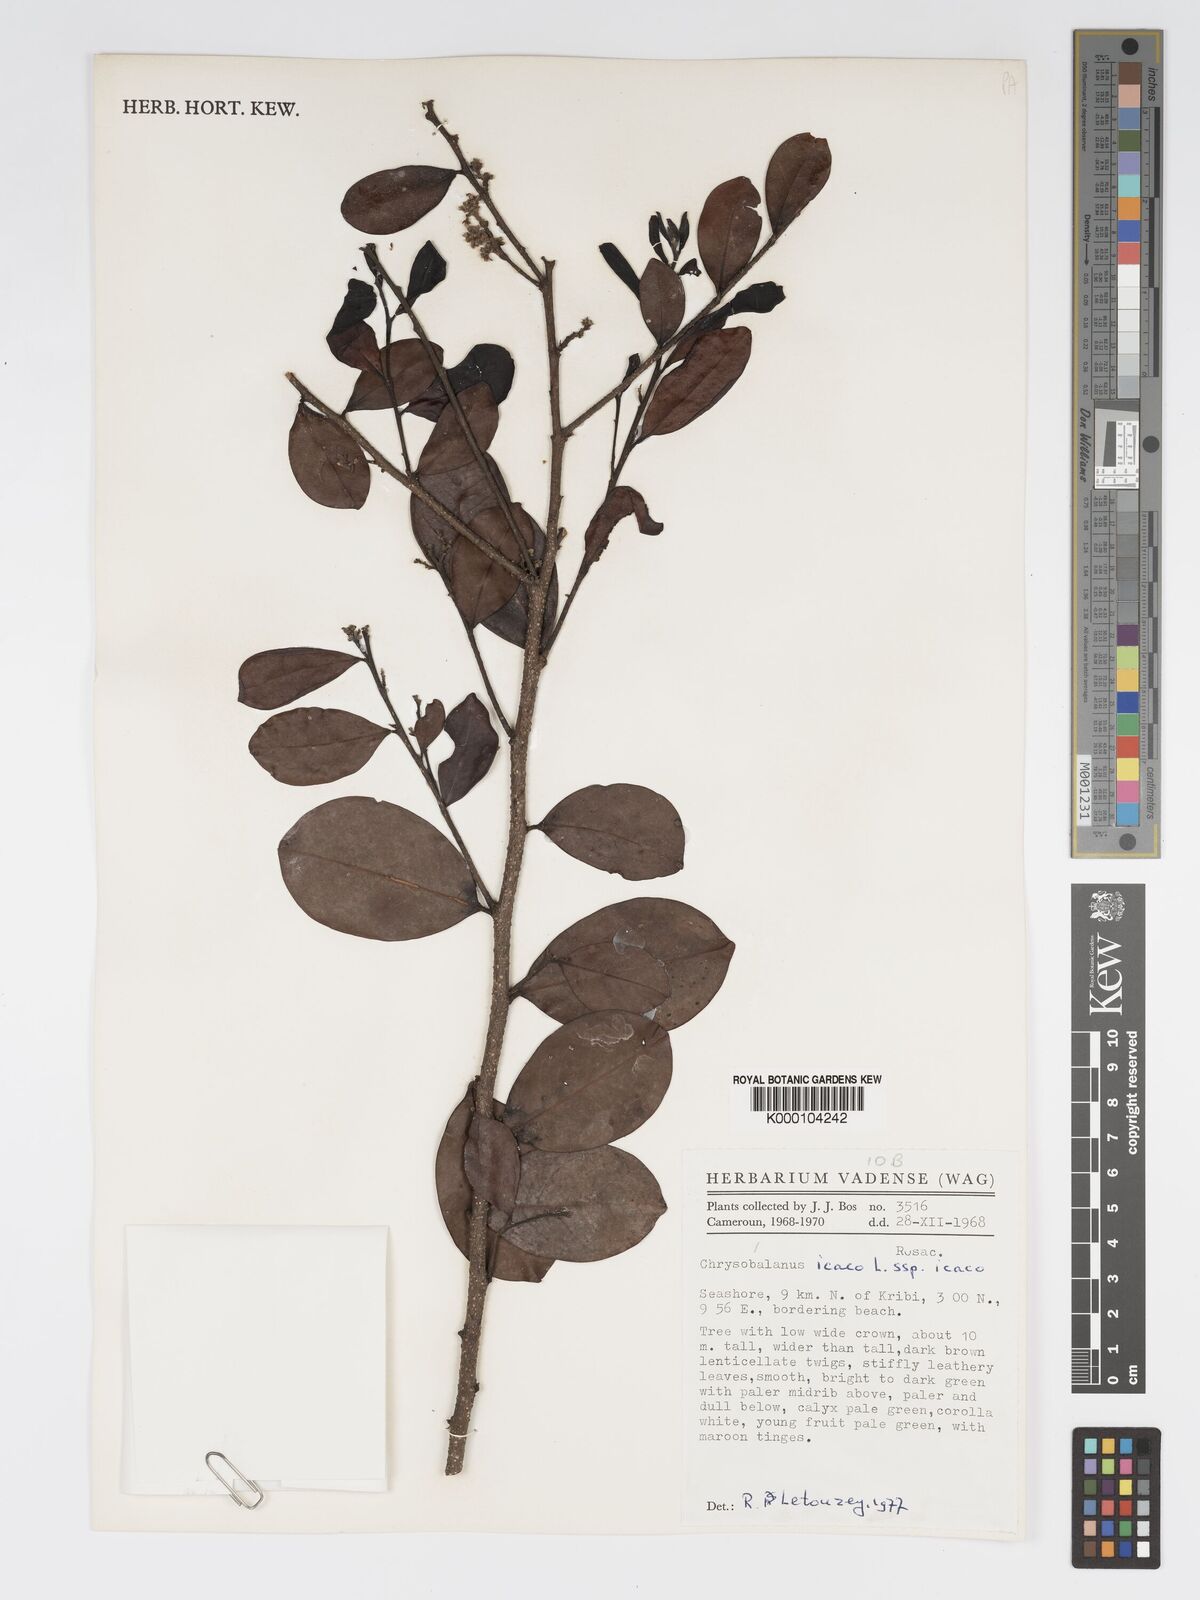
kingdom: Plantae
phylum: Tracheophyta
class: Magnoliopsida
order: Malpighiales
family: Chrysobalanaceae
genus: Chrysobalanus
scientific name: Chrysobalanus icaco
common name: Coco plum
